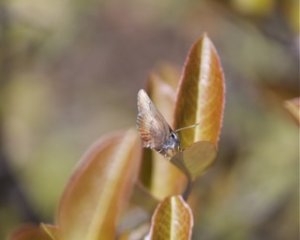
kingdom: Animalia
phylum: Arthropoda
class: Insecta
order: Lepidoptera
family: Lycaenidae
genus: Incisalia
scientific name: Incisalia irioides
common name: Brown Elfin
